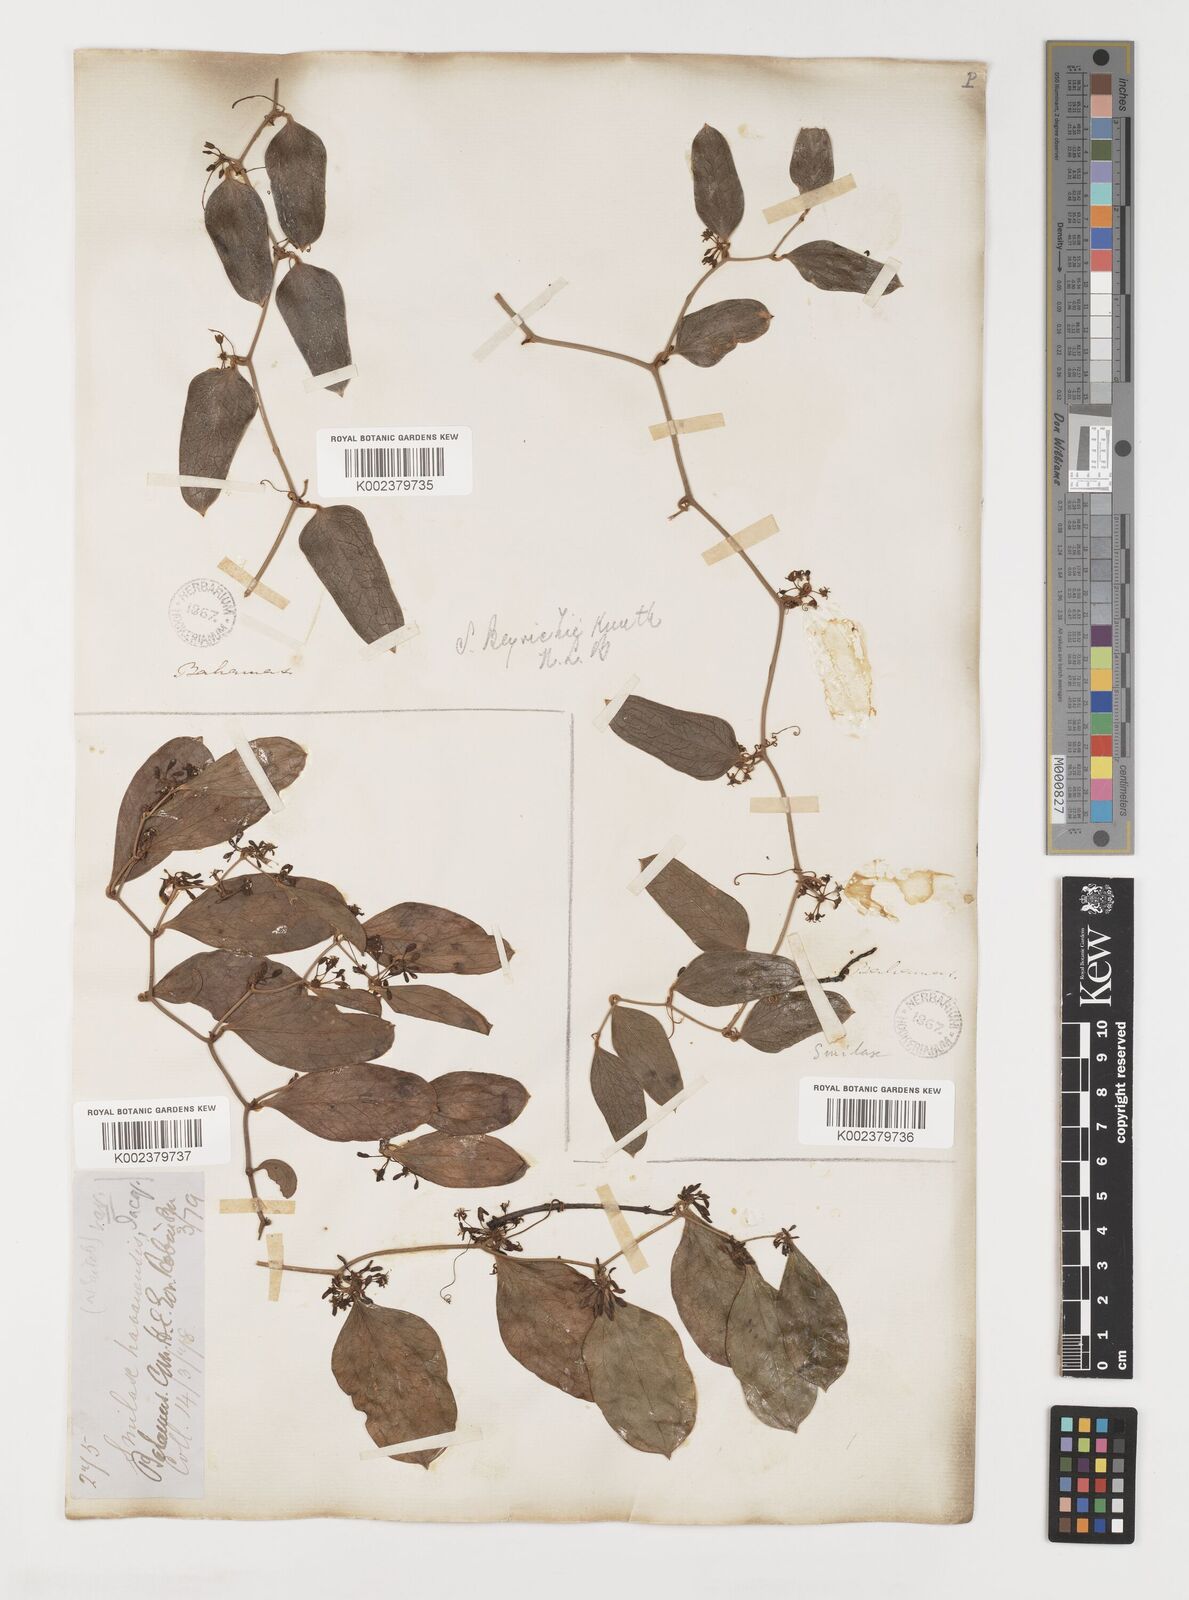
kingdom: Plantae
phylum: Tracheophyta
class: Liliopsida
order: Liliales
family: Smilacaceae
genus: Smilax
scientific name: Smilax auriculata
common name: Wild bamboo
